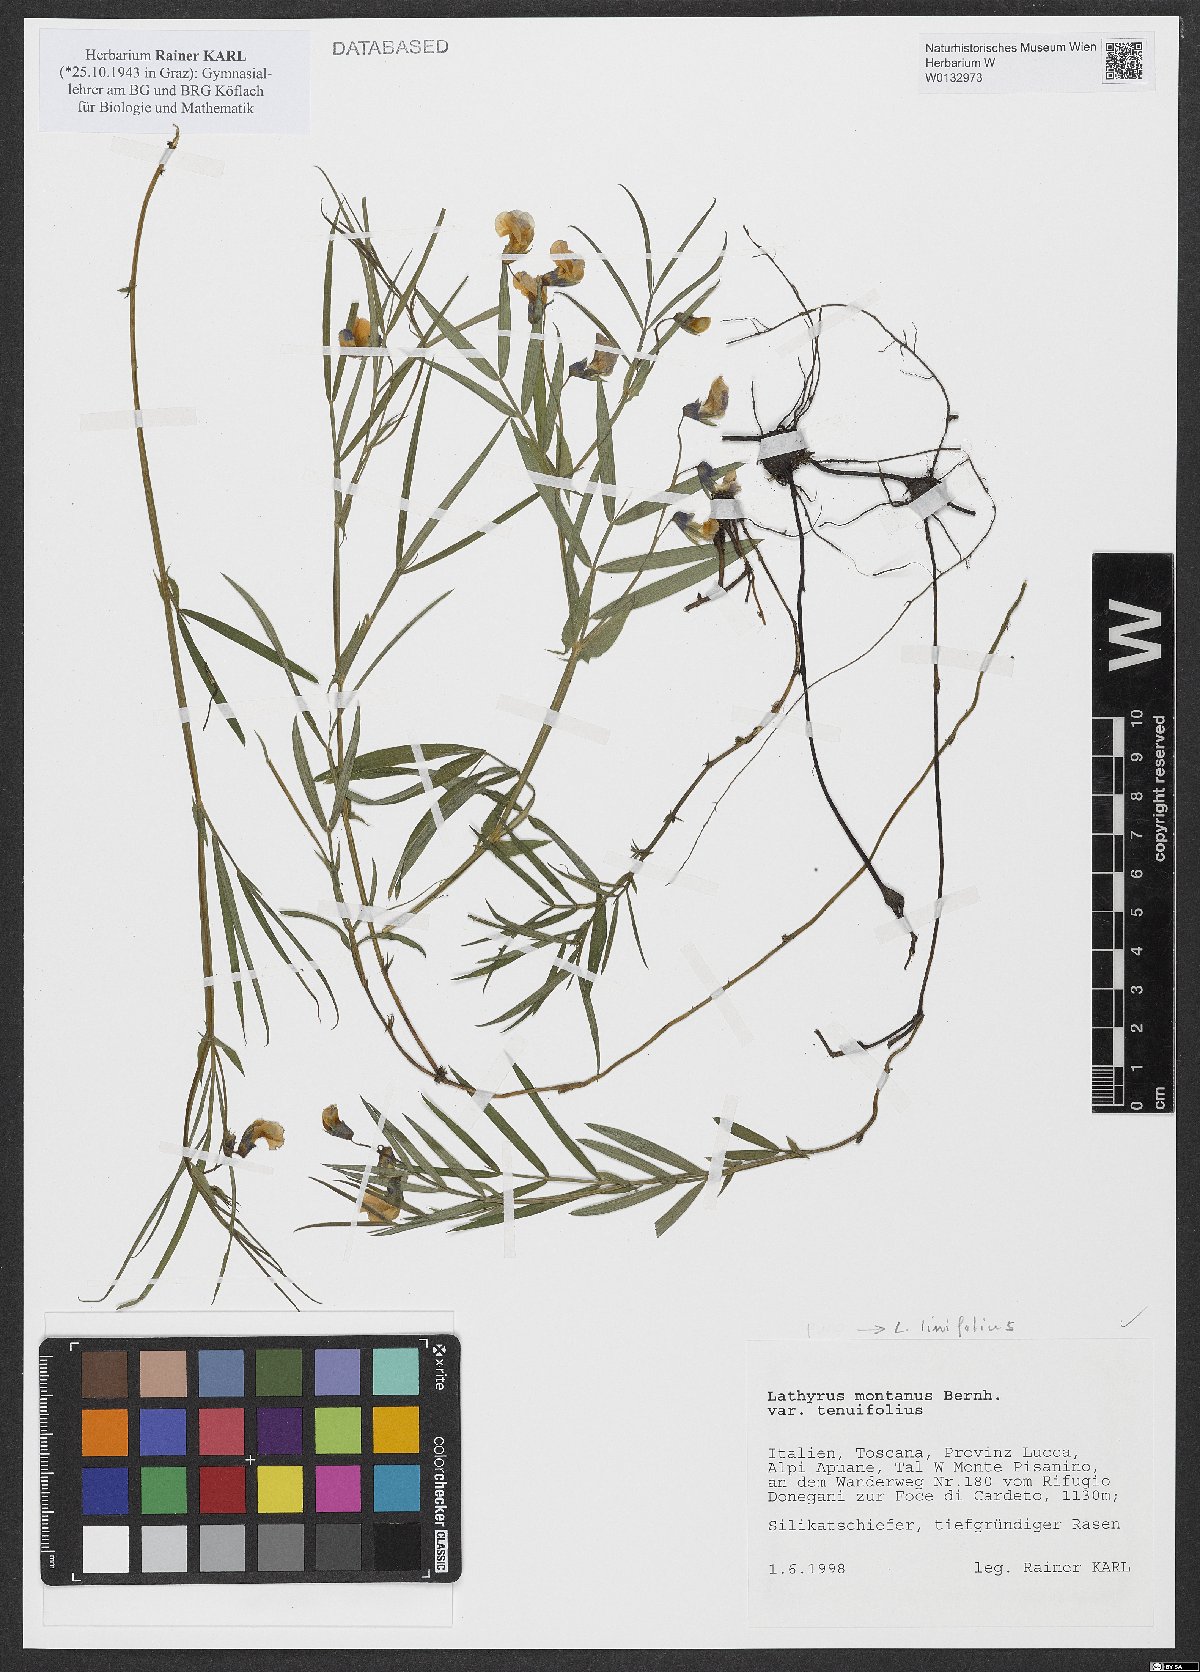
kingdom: Plantae
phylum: Tracheophyta
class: Magnoliopsida
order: Fabales
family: Fabaceae
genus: Lathyrus
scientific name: Lathyrus linifolius
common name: Bitter-vetch
